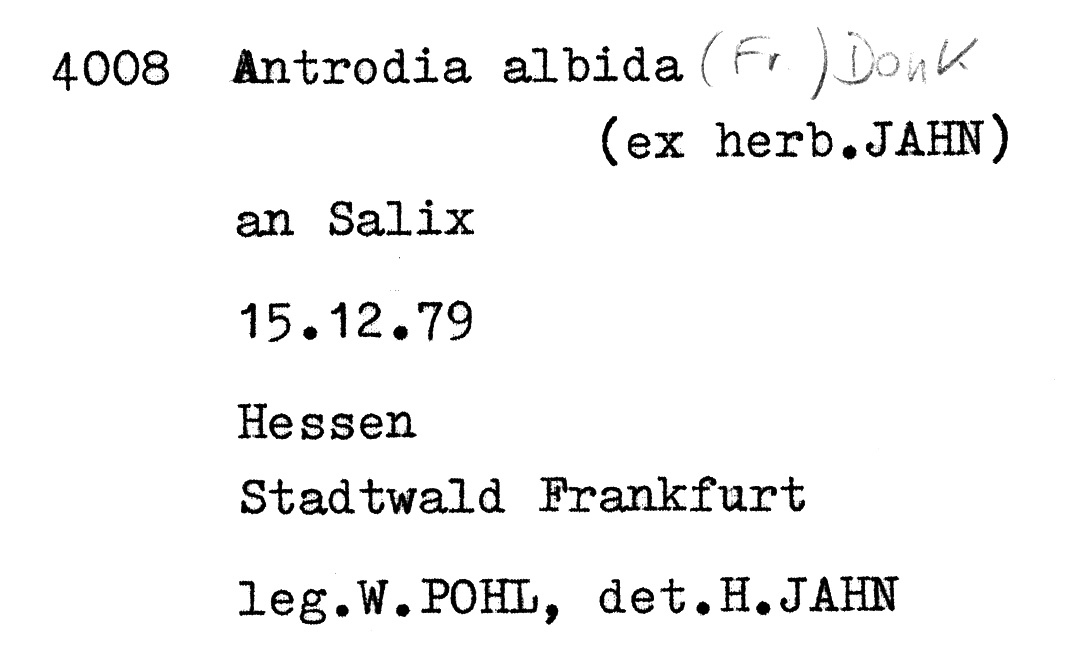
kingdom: Plantae
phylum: Tracheophyta
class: Magnoliopsida
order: Malpighiales
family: Salicaceae
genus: Salix
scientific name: Salix
